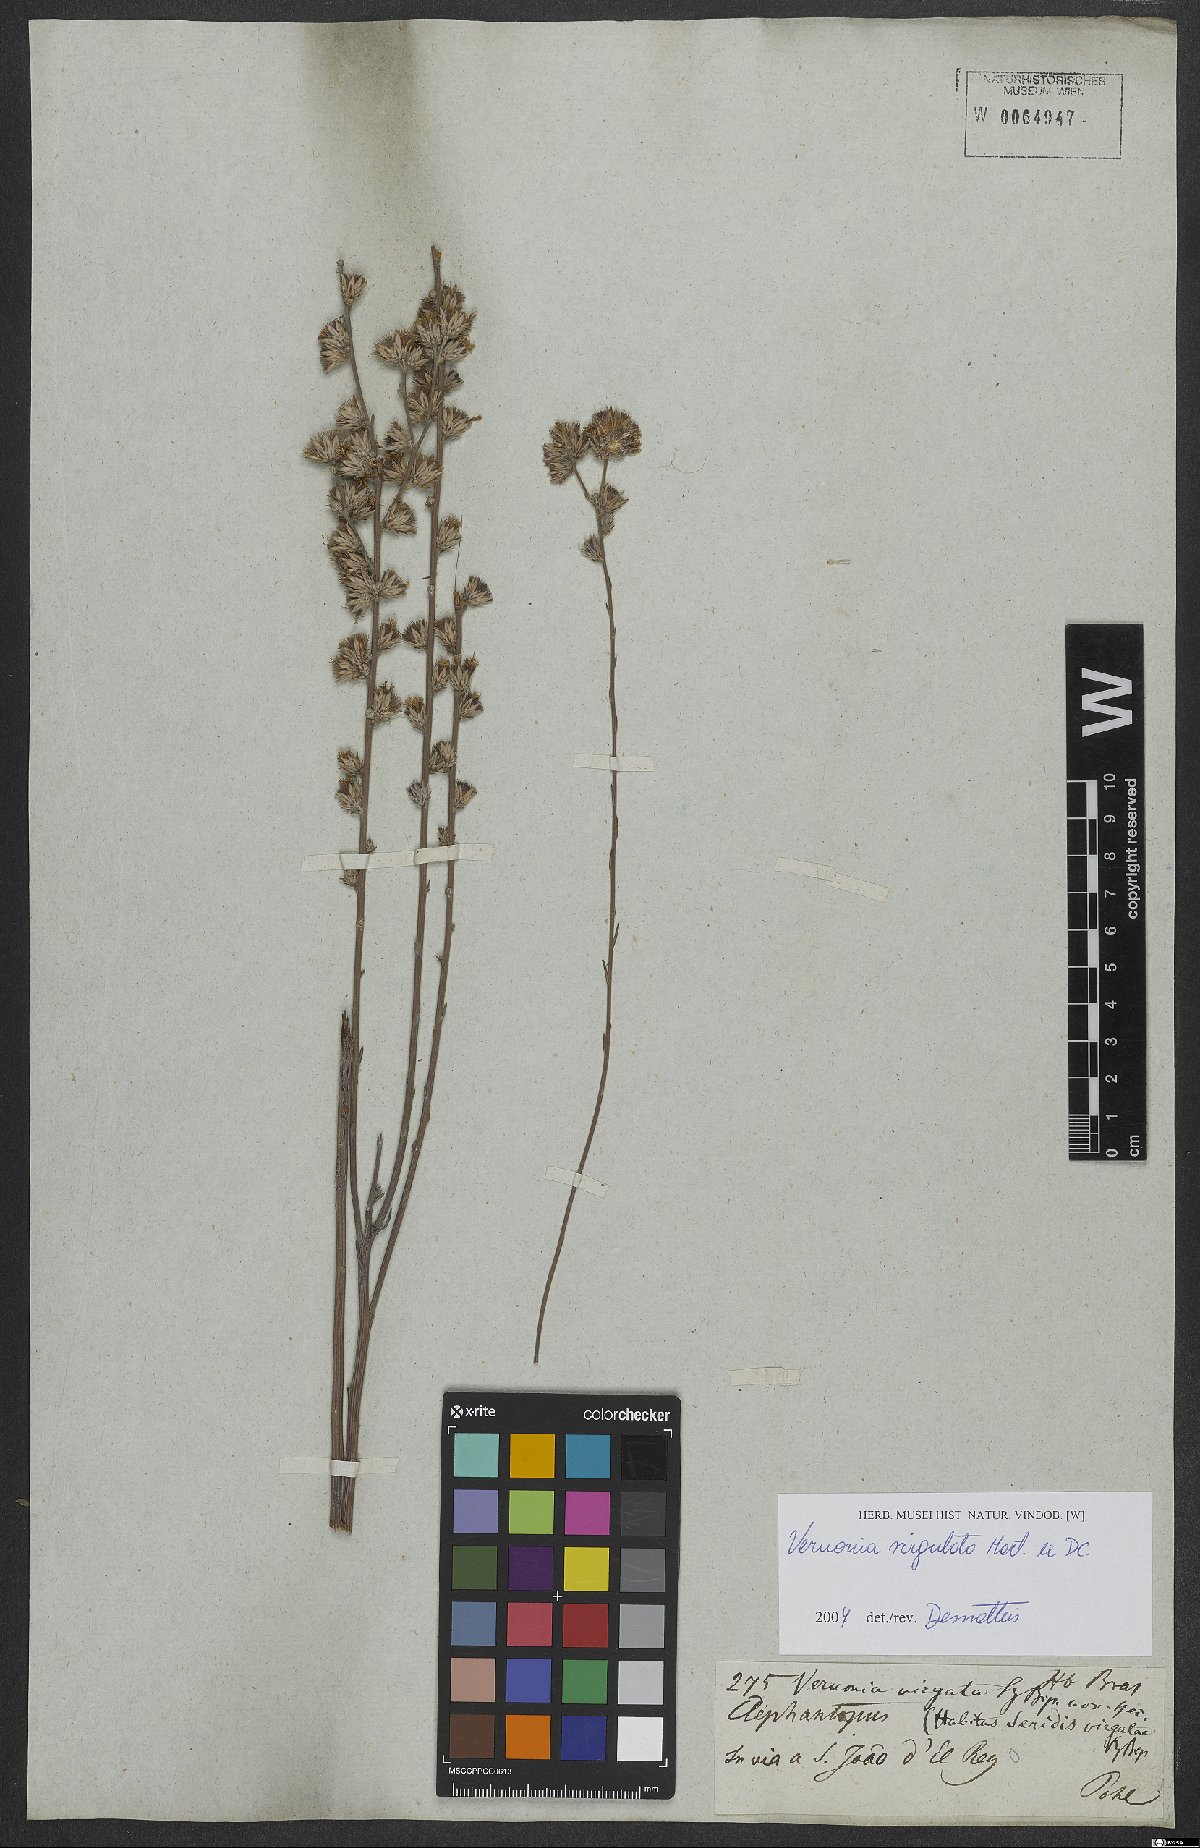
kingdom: Plantae
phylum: Tracheophyta
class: Magnoliopsida
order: Asterales
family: Asteraceae
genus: Lessingianthus
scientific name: Lessingianthus virgulatus
